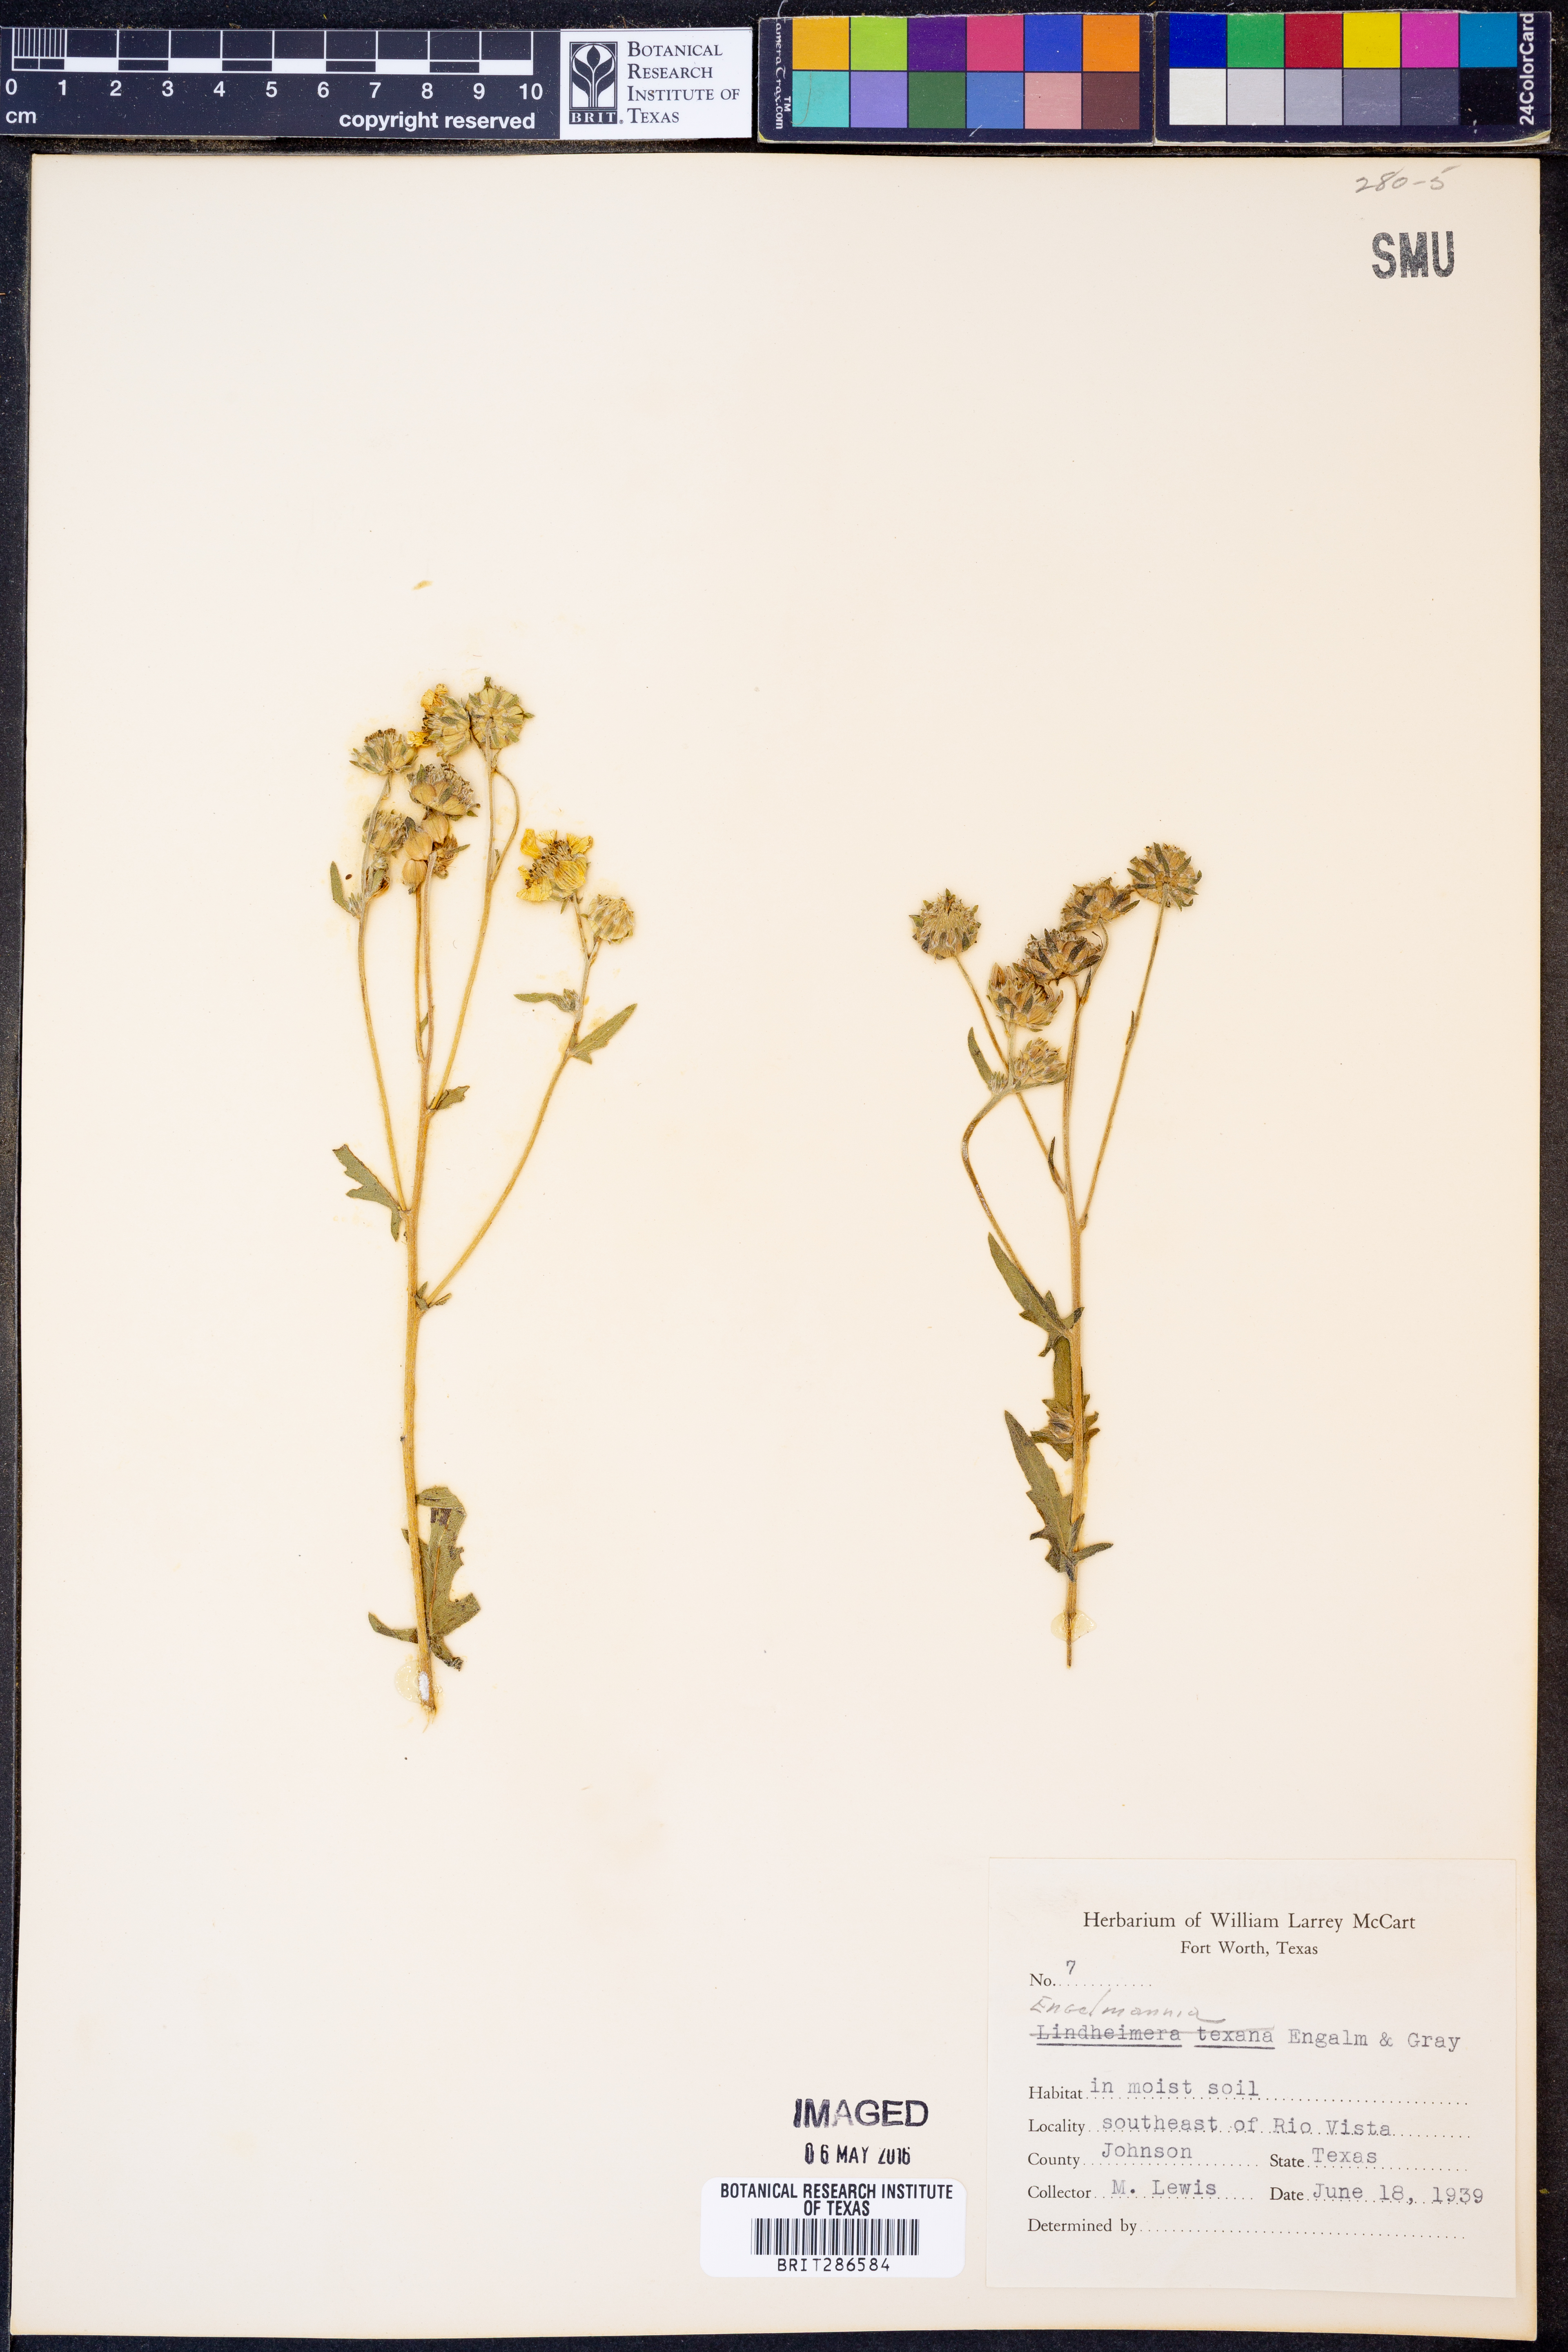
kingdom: Plantae
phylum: Tracheophyta
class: Magnoliopsida
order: Asterales
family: Asteraceae
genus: Engelmannia
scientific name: Engelmannia
